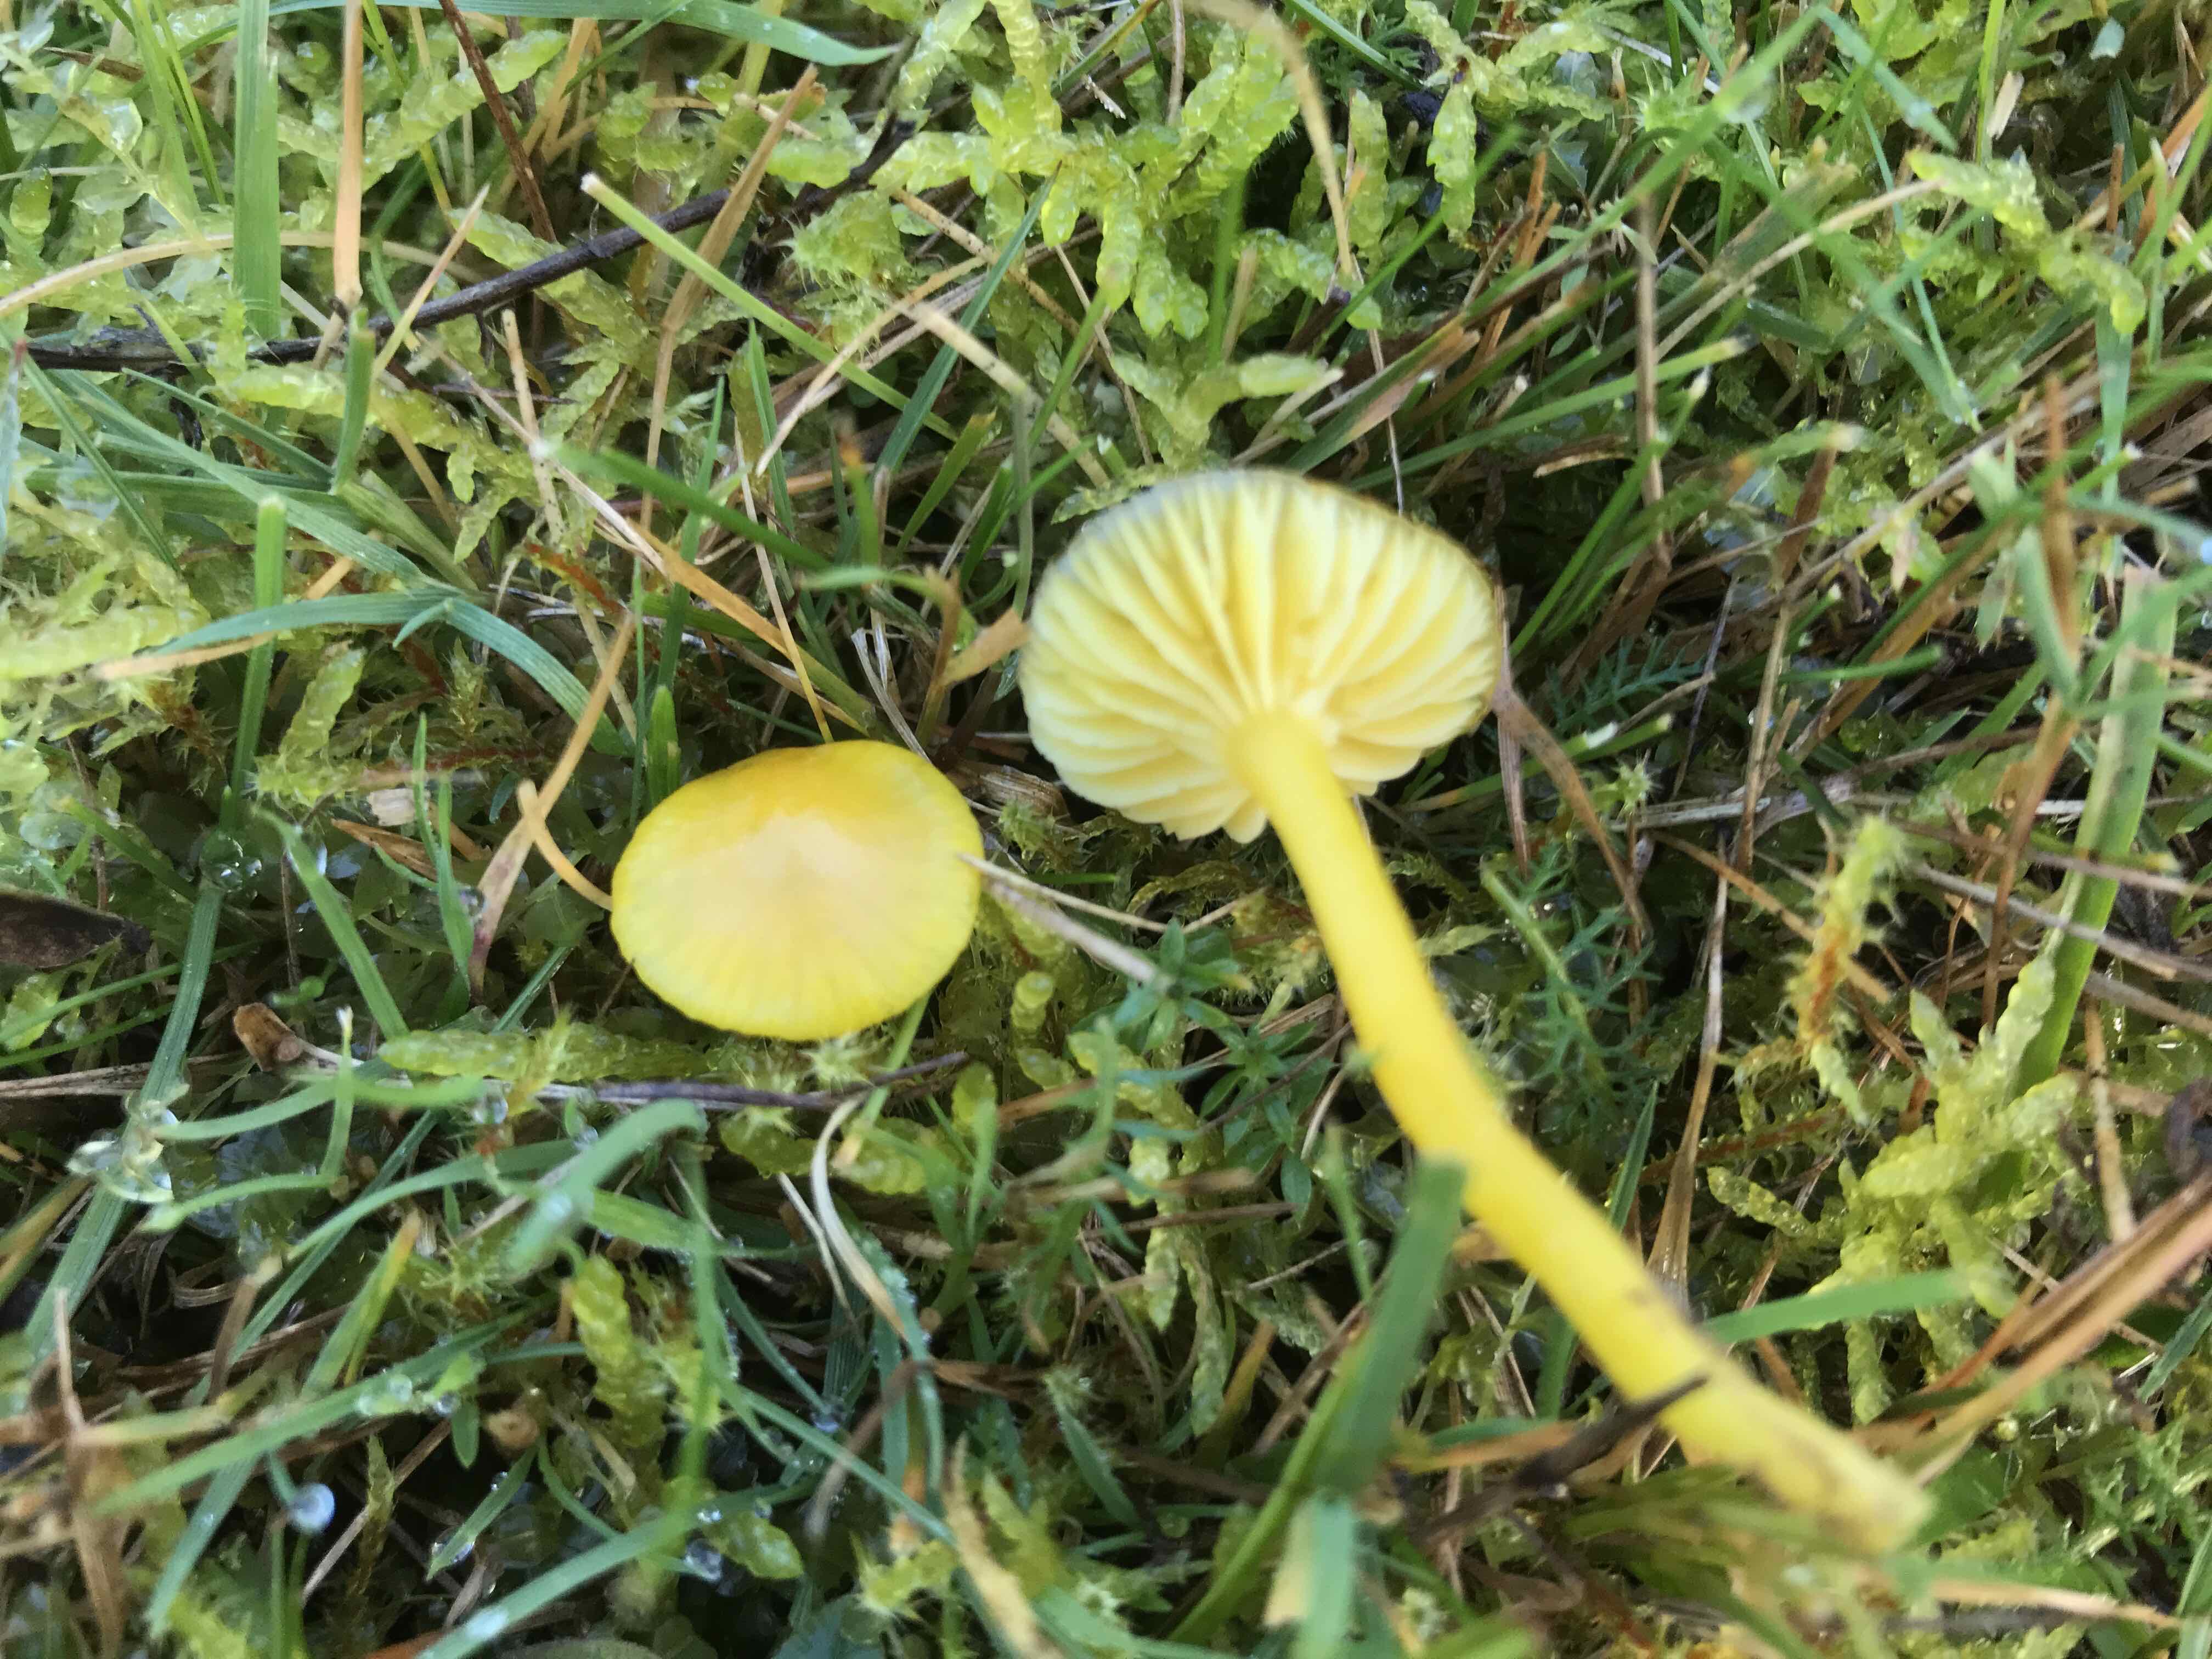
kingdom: Fungi
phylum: Basidiomycota
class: Agaricomycetes
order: Agaricales
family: Hygrophoraceae
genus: Hygrocybe
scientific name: Hygrocybe ceracea
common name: voksgul vokshat
